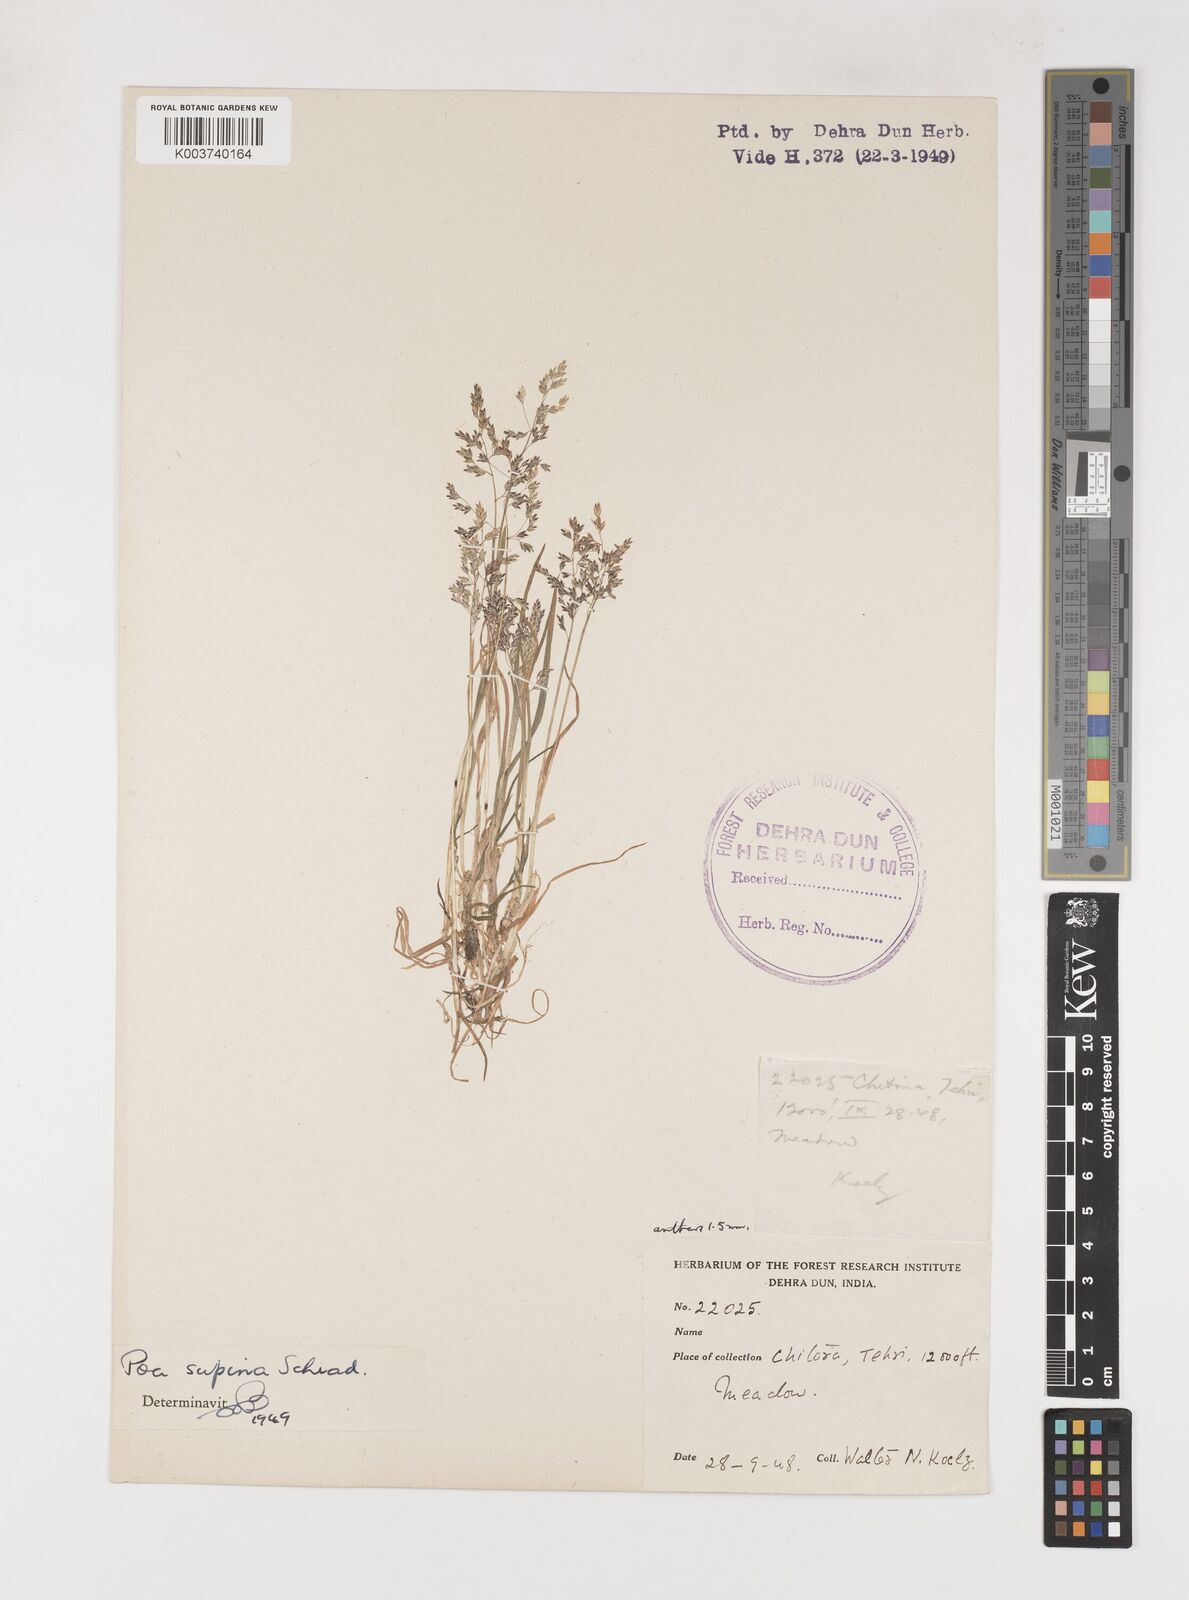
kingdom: Plantae
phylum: Tracheophyta
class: Liliopsida
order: Poales
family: Poaceae
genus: Poa
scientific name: Poa supina
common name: Supina bluegrass
